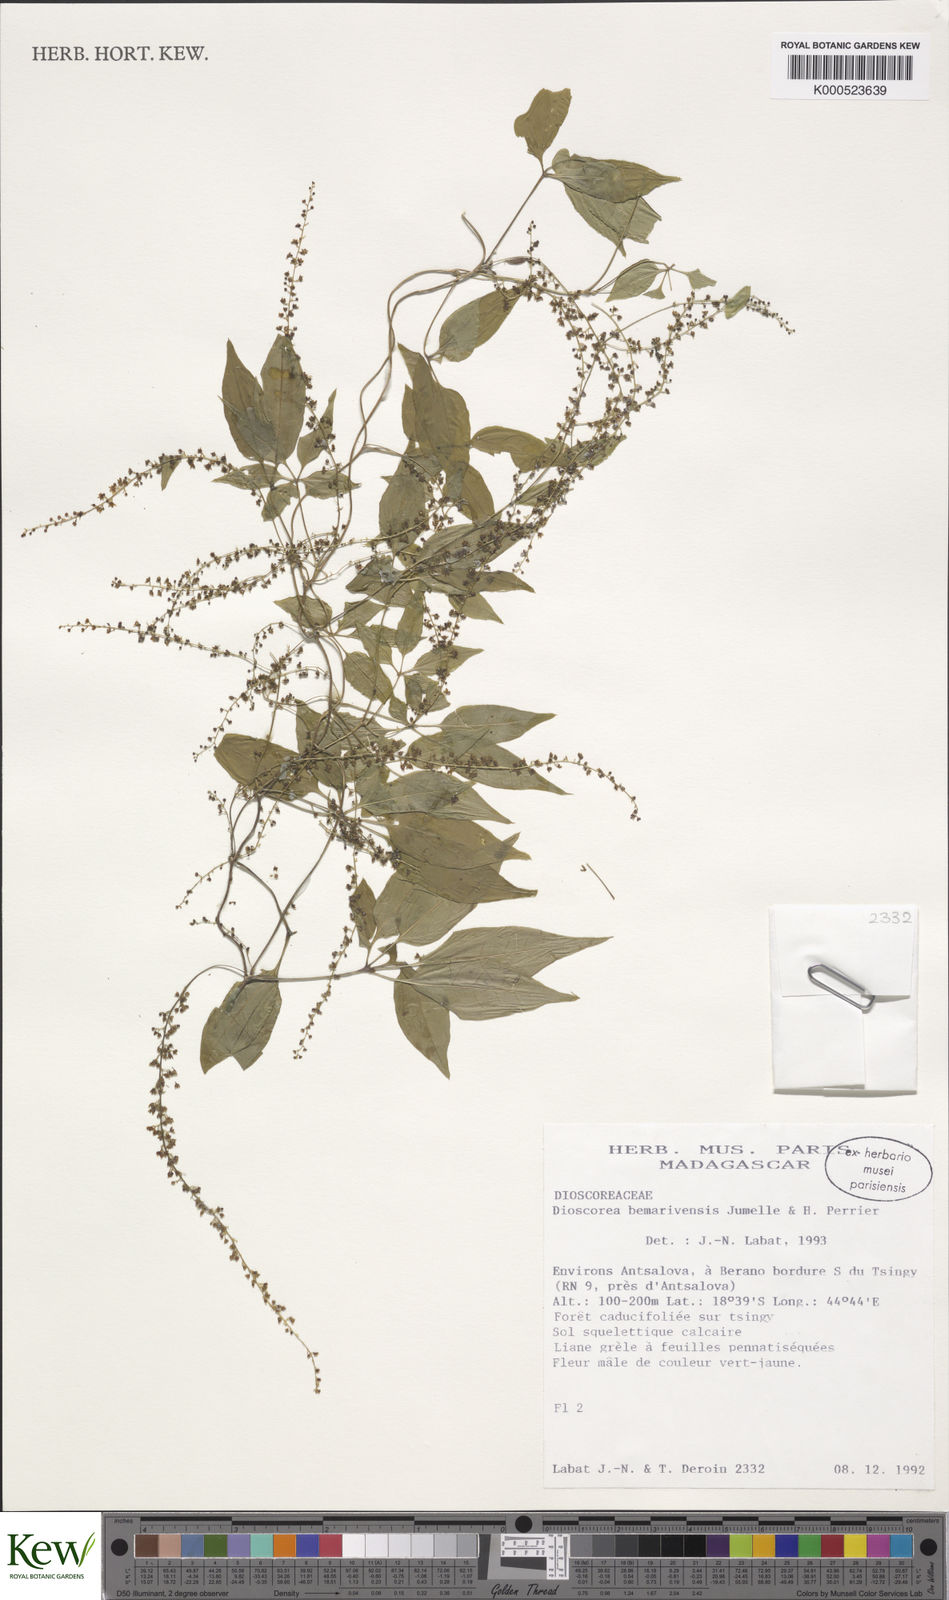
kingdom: Plantae
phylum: Tracheophyta
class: Liliopsida
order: Dioscoreales
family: Dioscoreaceae
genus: Dioscorea
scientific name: Dioscorea bemarivensis
